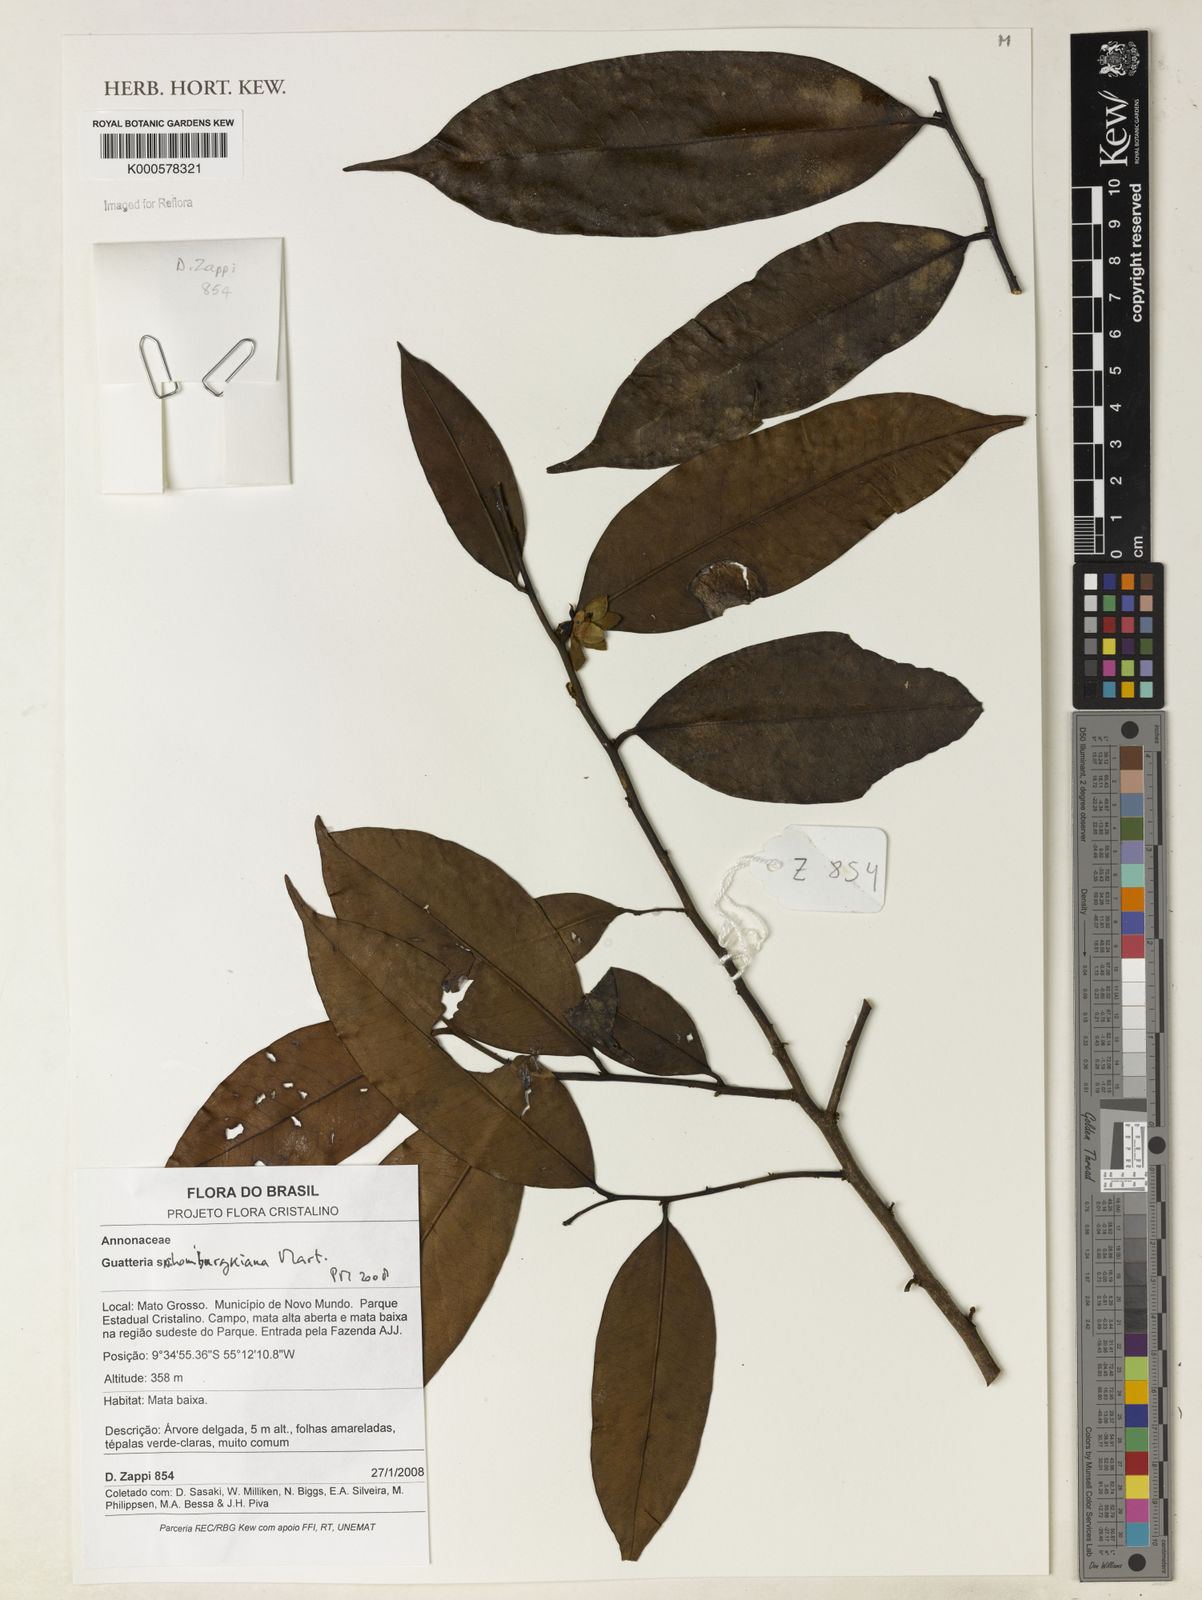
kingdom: Plantae
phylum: Tracheophyta
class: Magnoliopsida
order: Magnoliales
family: Annonaceae
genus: Guatteria
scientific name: Guatteria schomburgkiana
